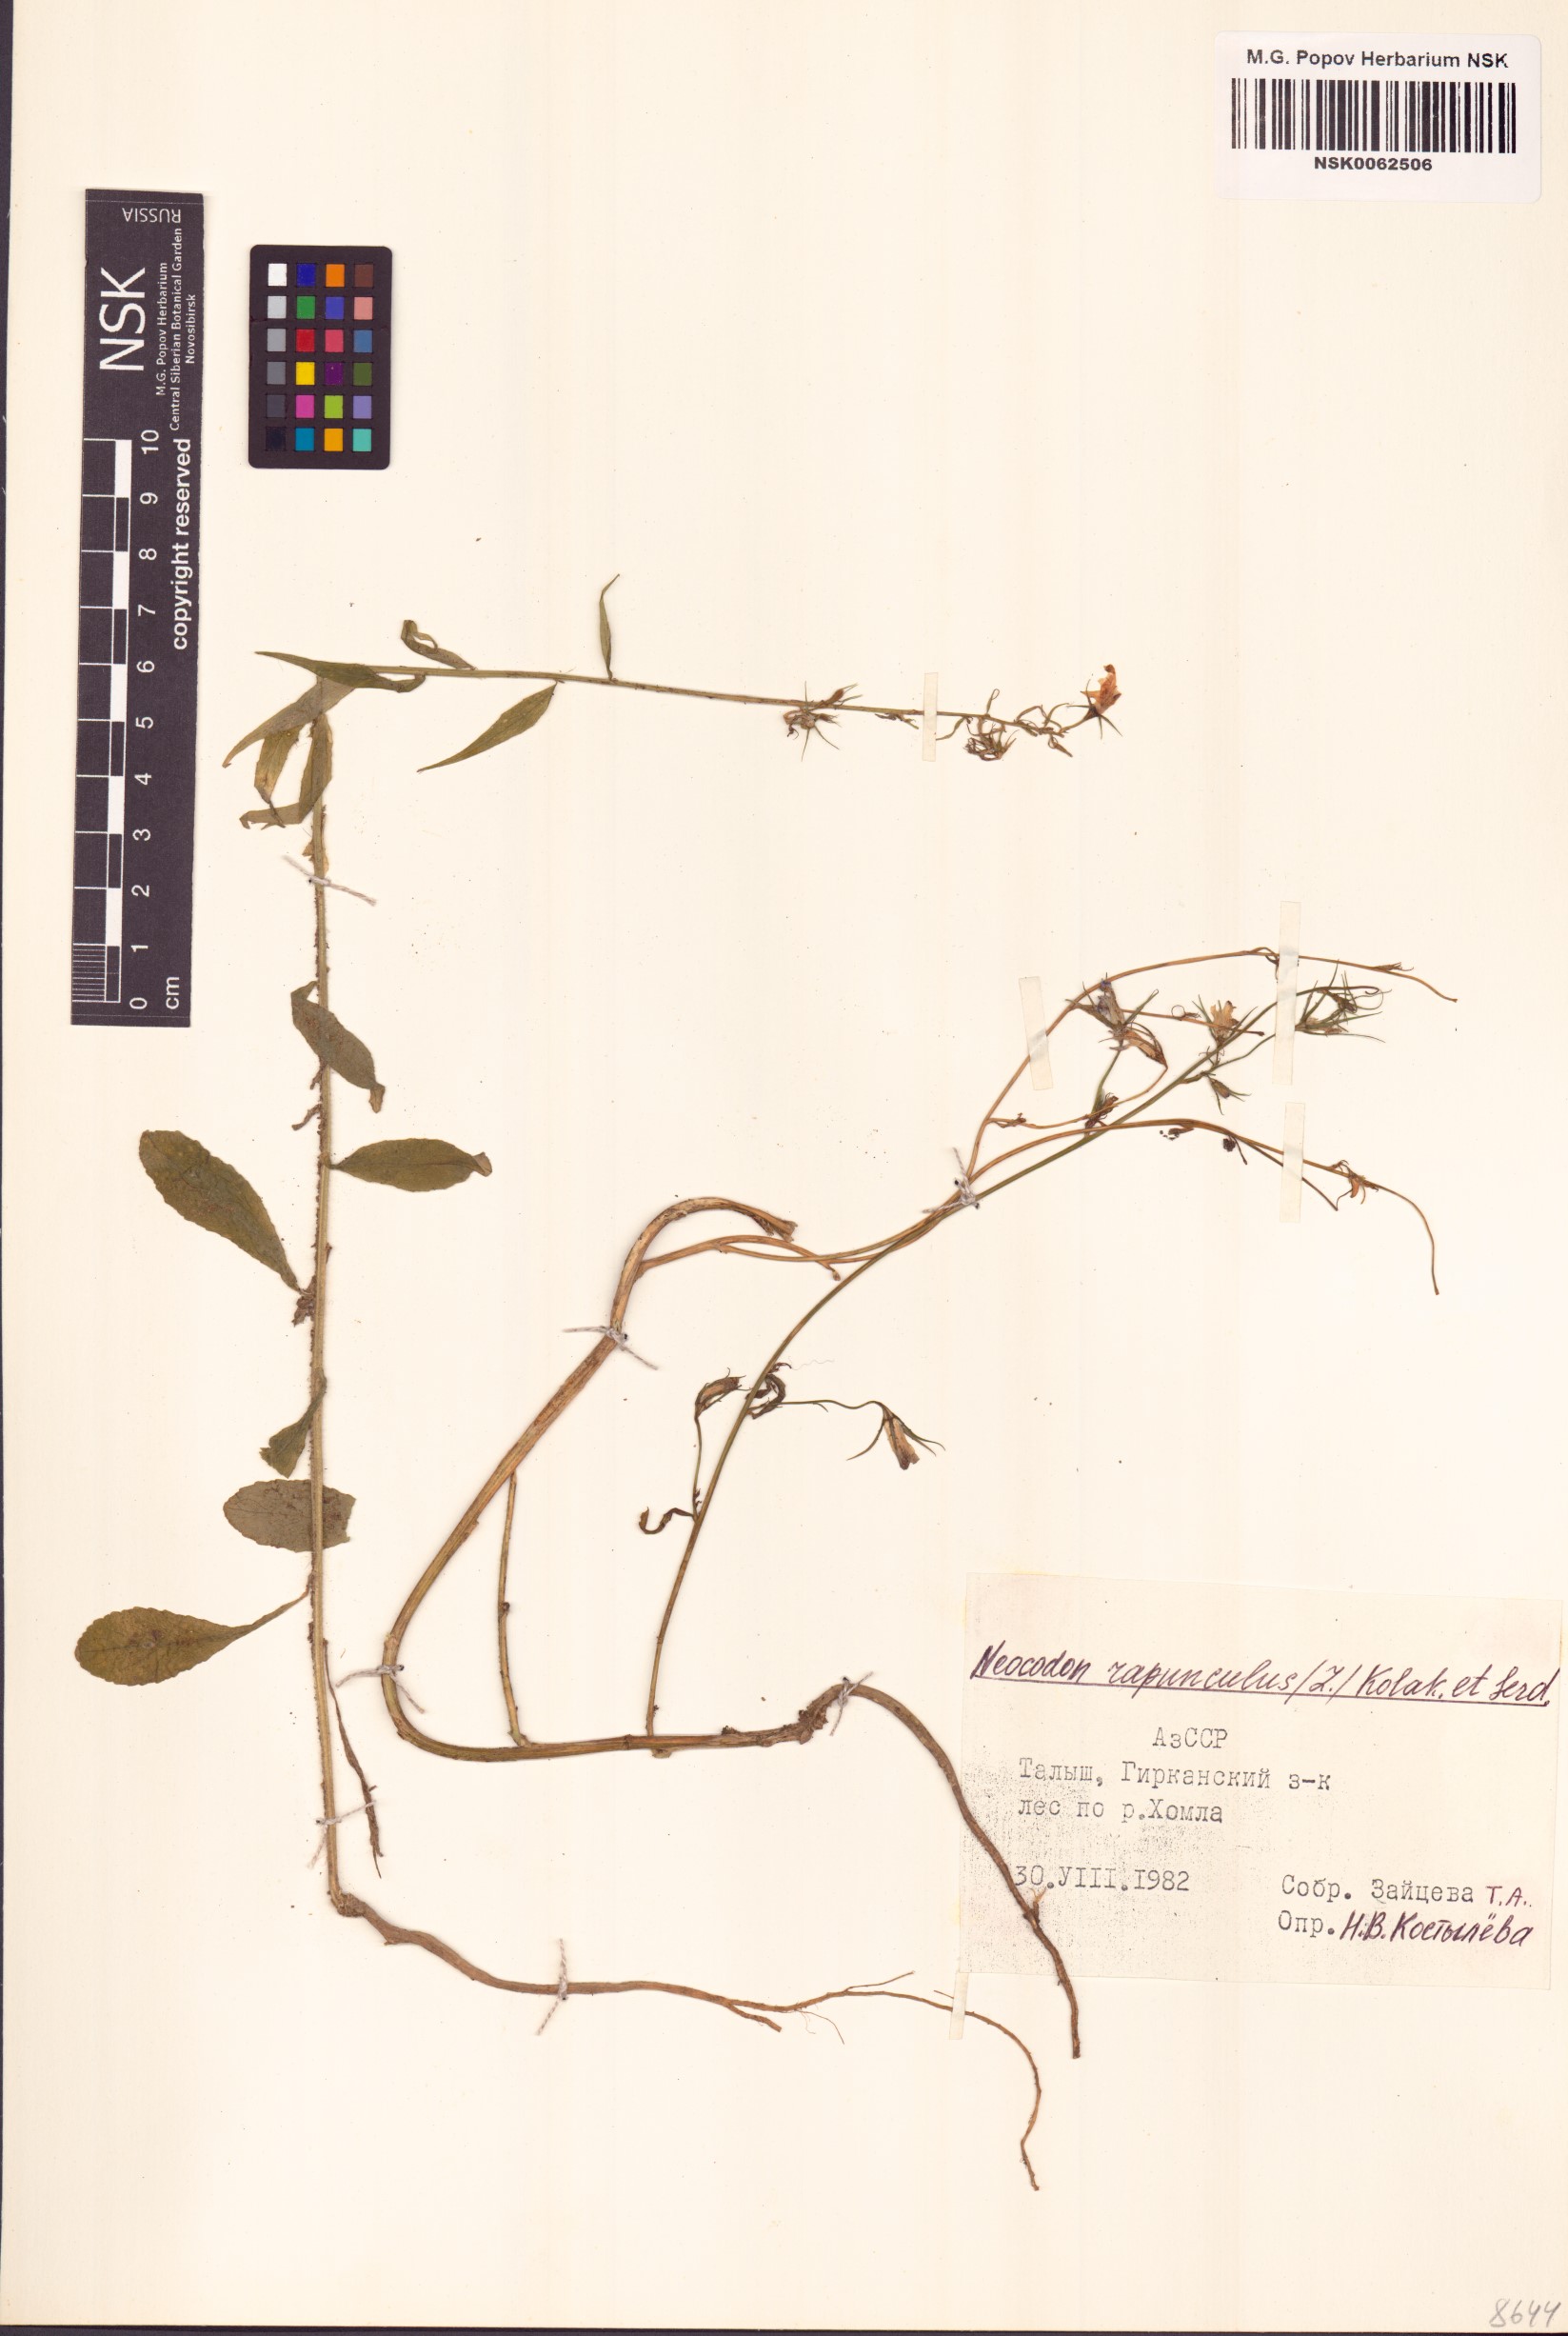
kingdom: Plantae
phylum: Tracheophyta
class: Magnoliopsida
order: Asterales
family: Campanulaceae
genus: Campanula
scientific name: Campanula rapunculus
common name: Rampion bellflower
